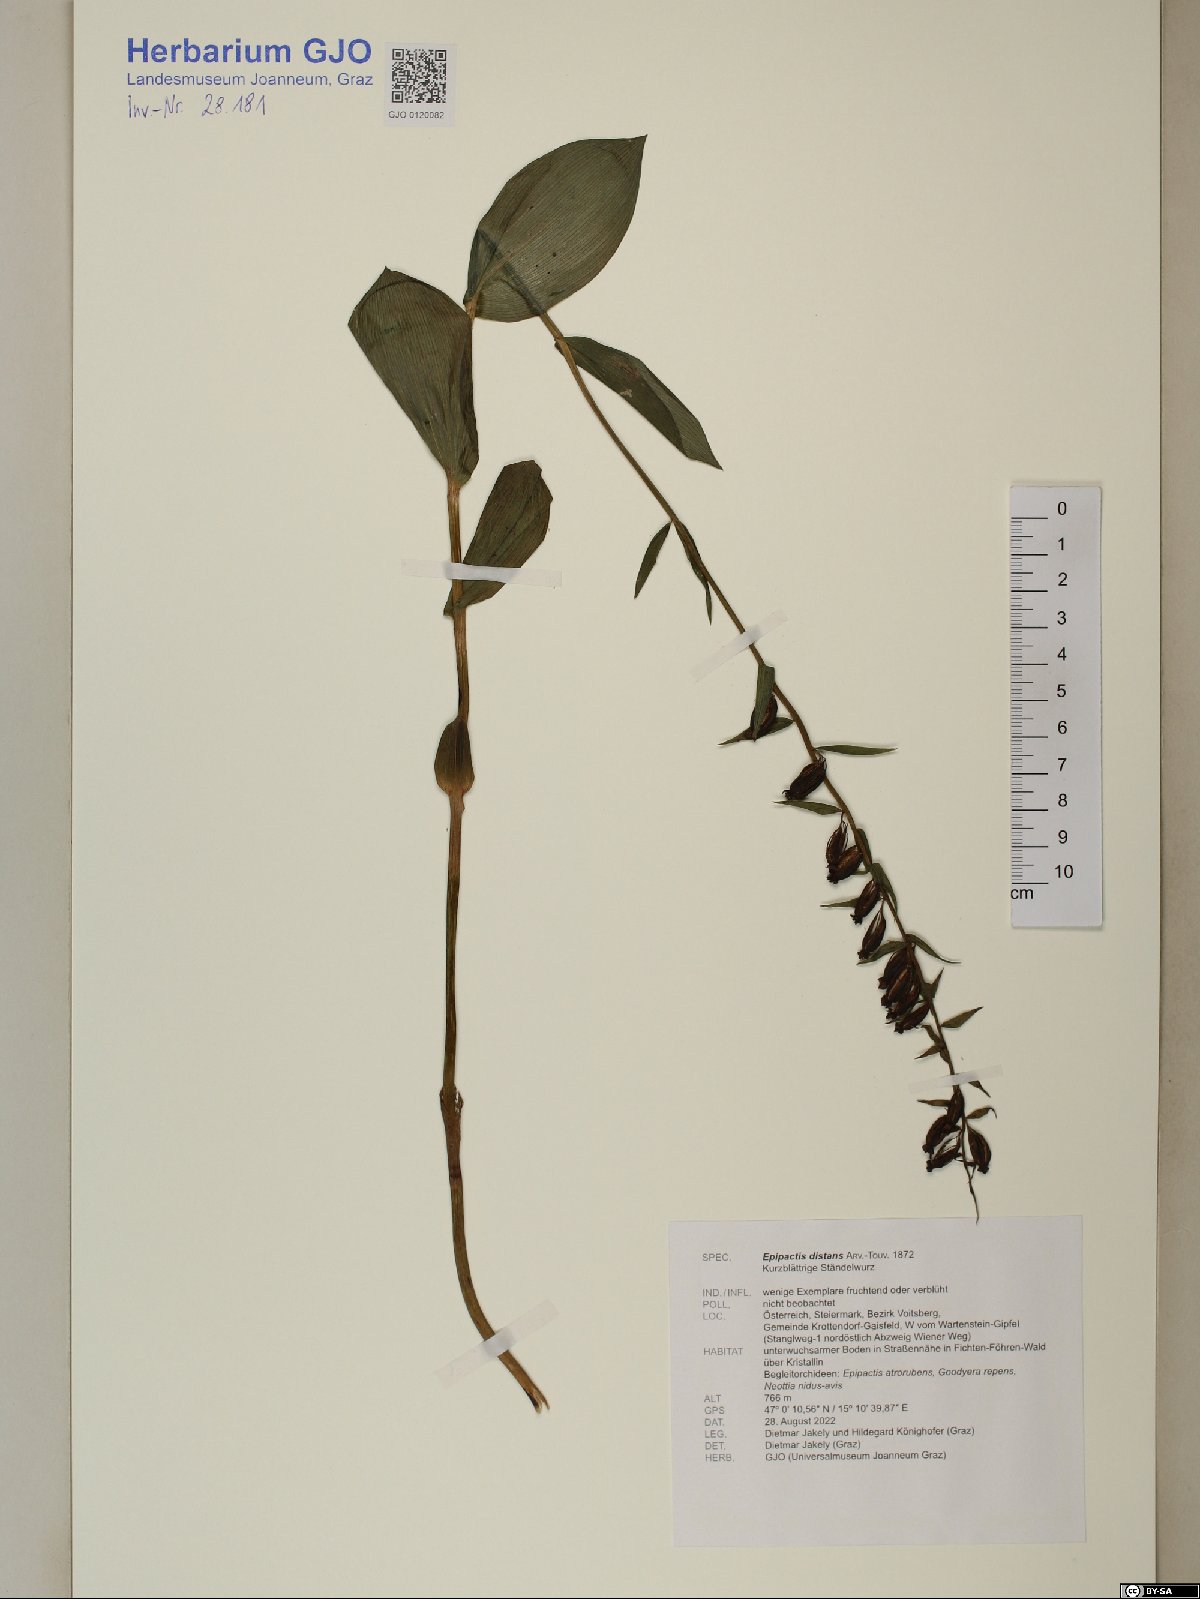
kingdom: Plantae
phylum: Tracheophyta
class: Liliopsida
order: Asparagales
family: Orchidaceae
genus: Epipactis
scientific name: Epipactis helleborine
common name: Broad-leaved helleborine
